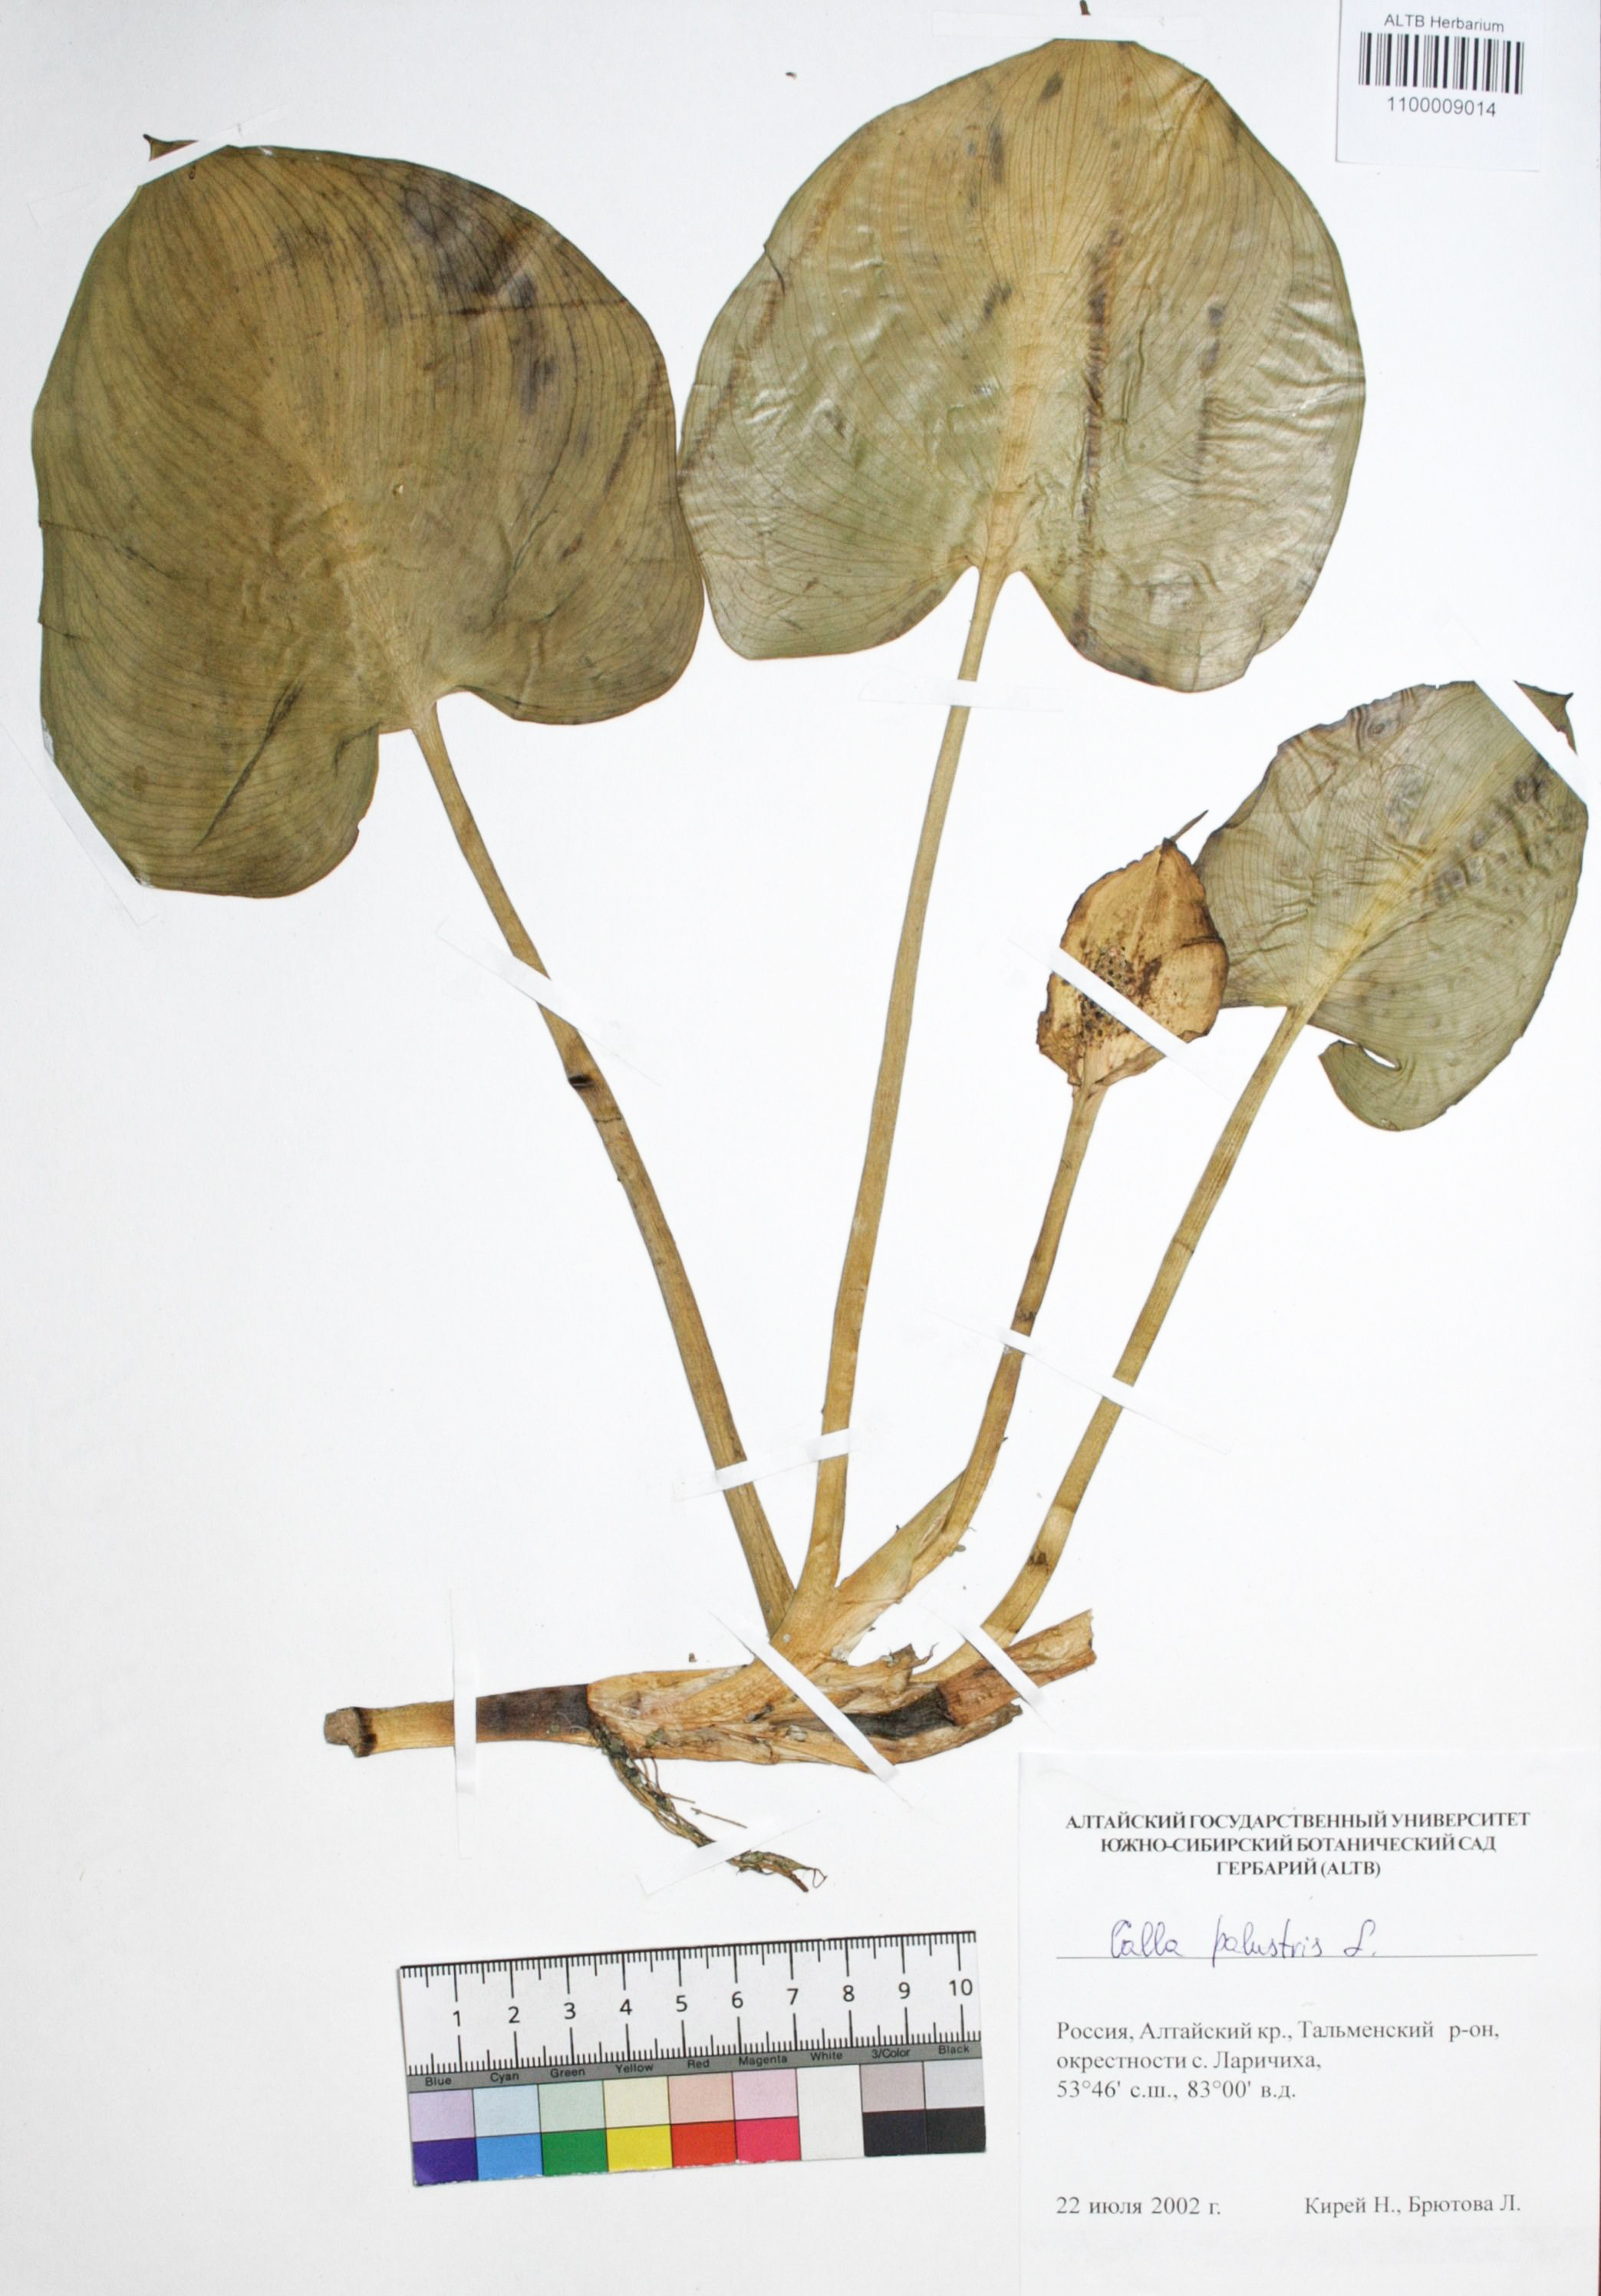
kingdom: Plantae
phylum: Tracheophyta
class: Liliopsida
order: Alismatales
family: Araceae
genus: Calla
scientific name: Calla palustris
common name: Bog arum
